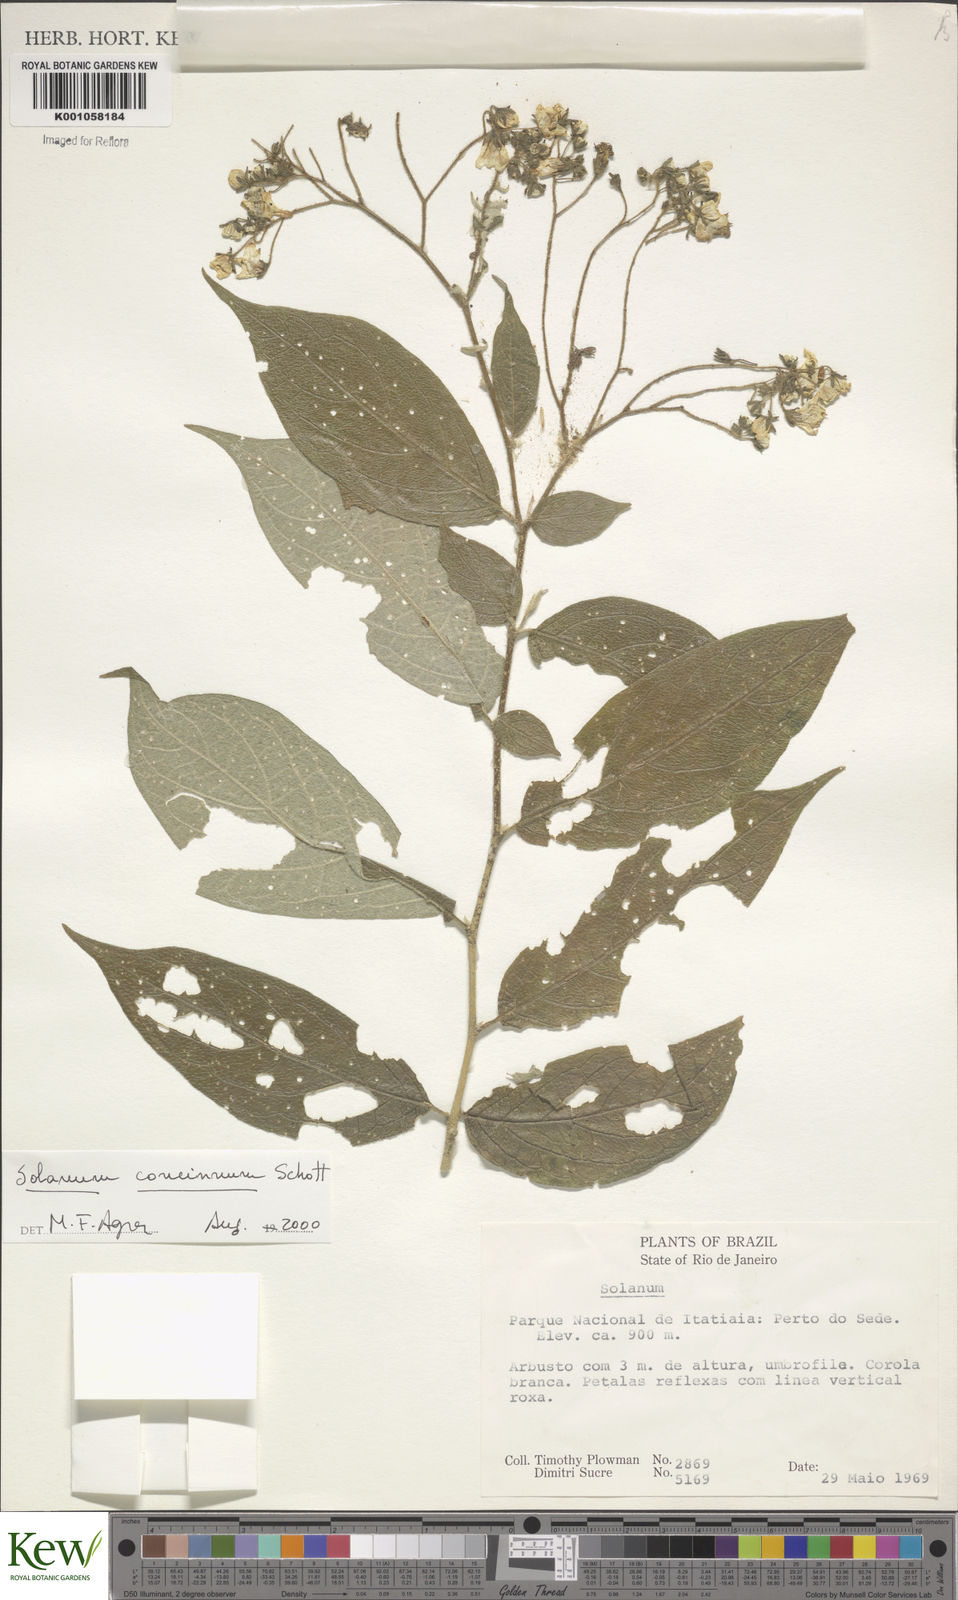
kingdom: Plantae
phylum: Tracheophyta
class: Magnoliopsida
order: Solanales
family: Solanaceae
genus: Solanum
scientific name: Solanum concinnum
